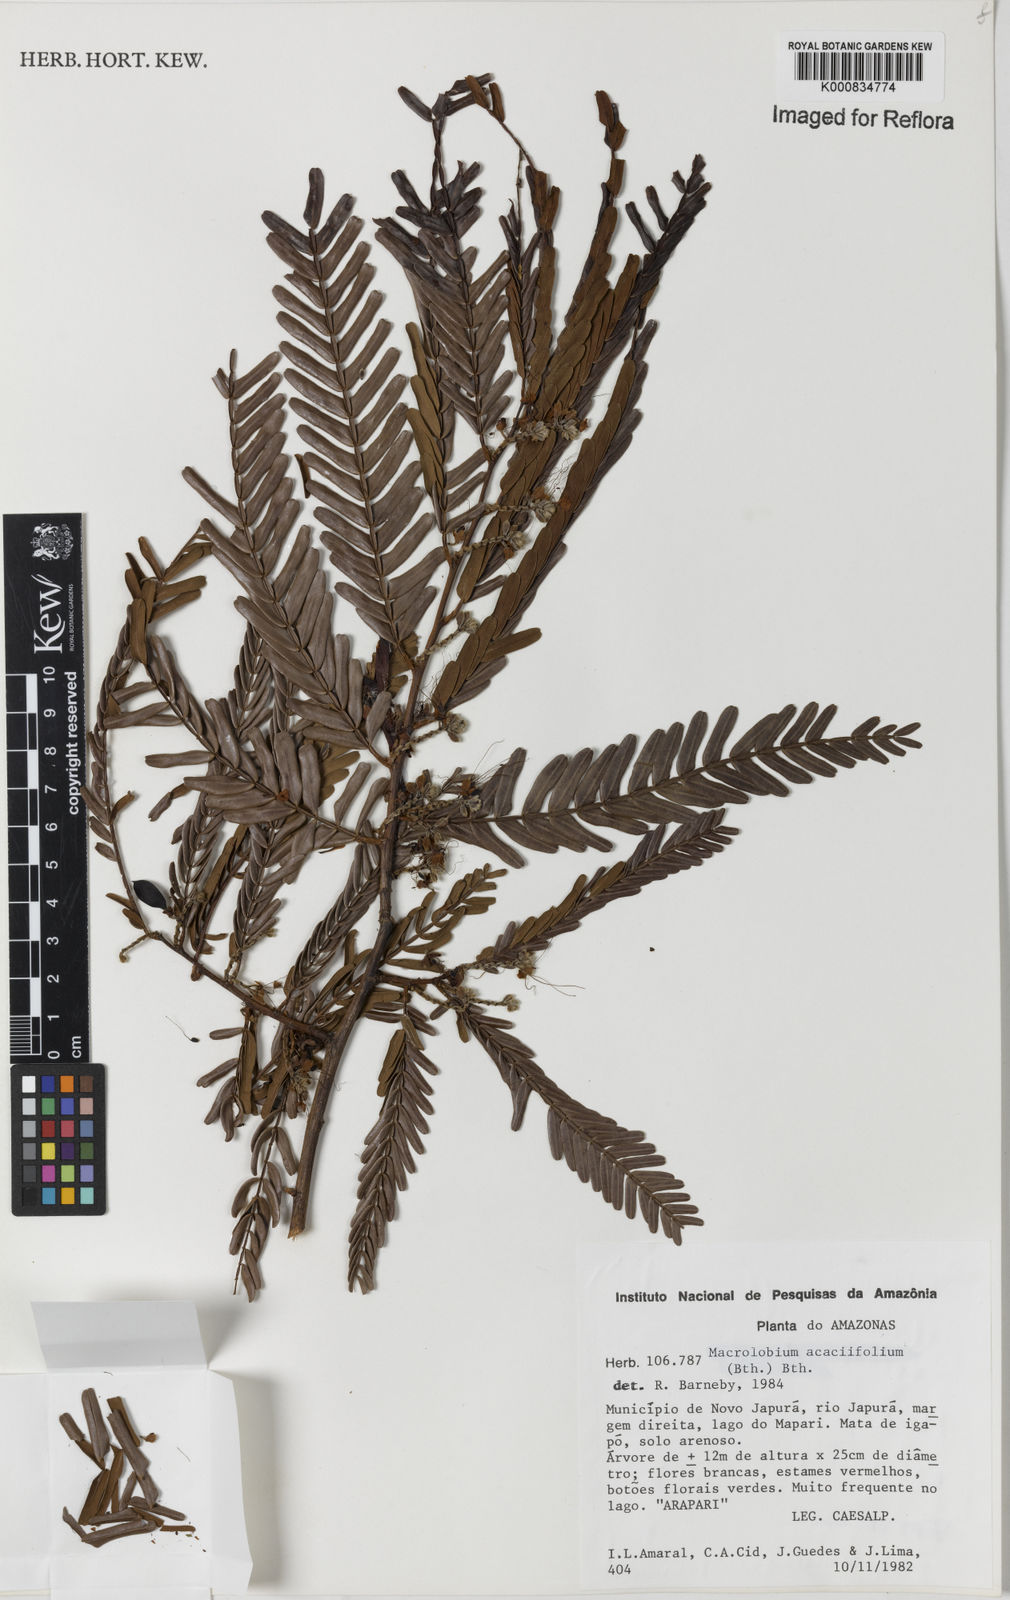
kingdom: Plantae
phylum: Tracheophyta
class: Magnoliopsida
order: Fabales
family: Fabaceae
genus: Macrolobium
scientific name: Macrolobium acaciifolium
